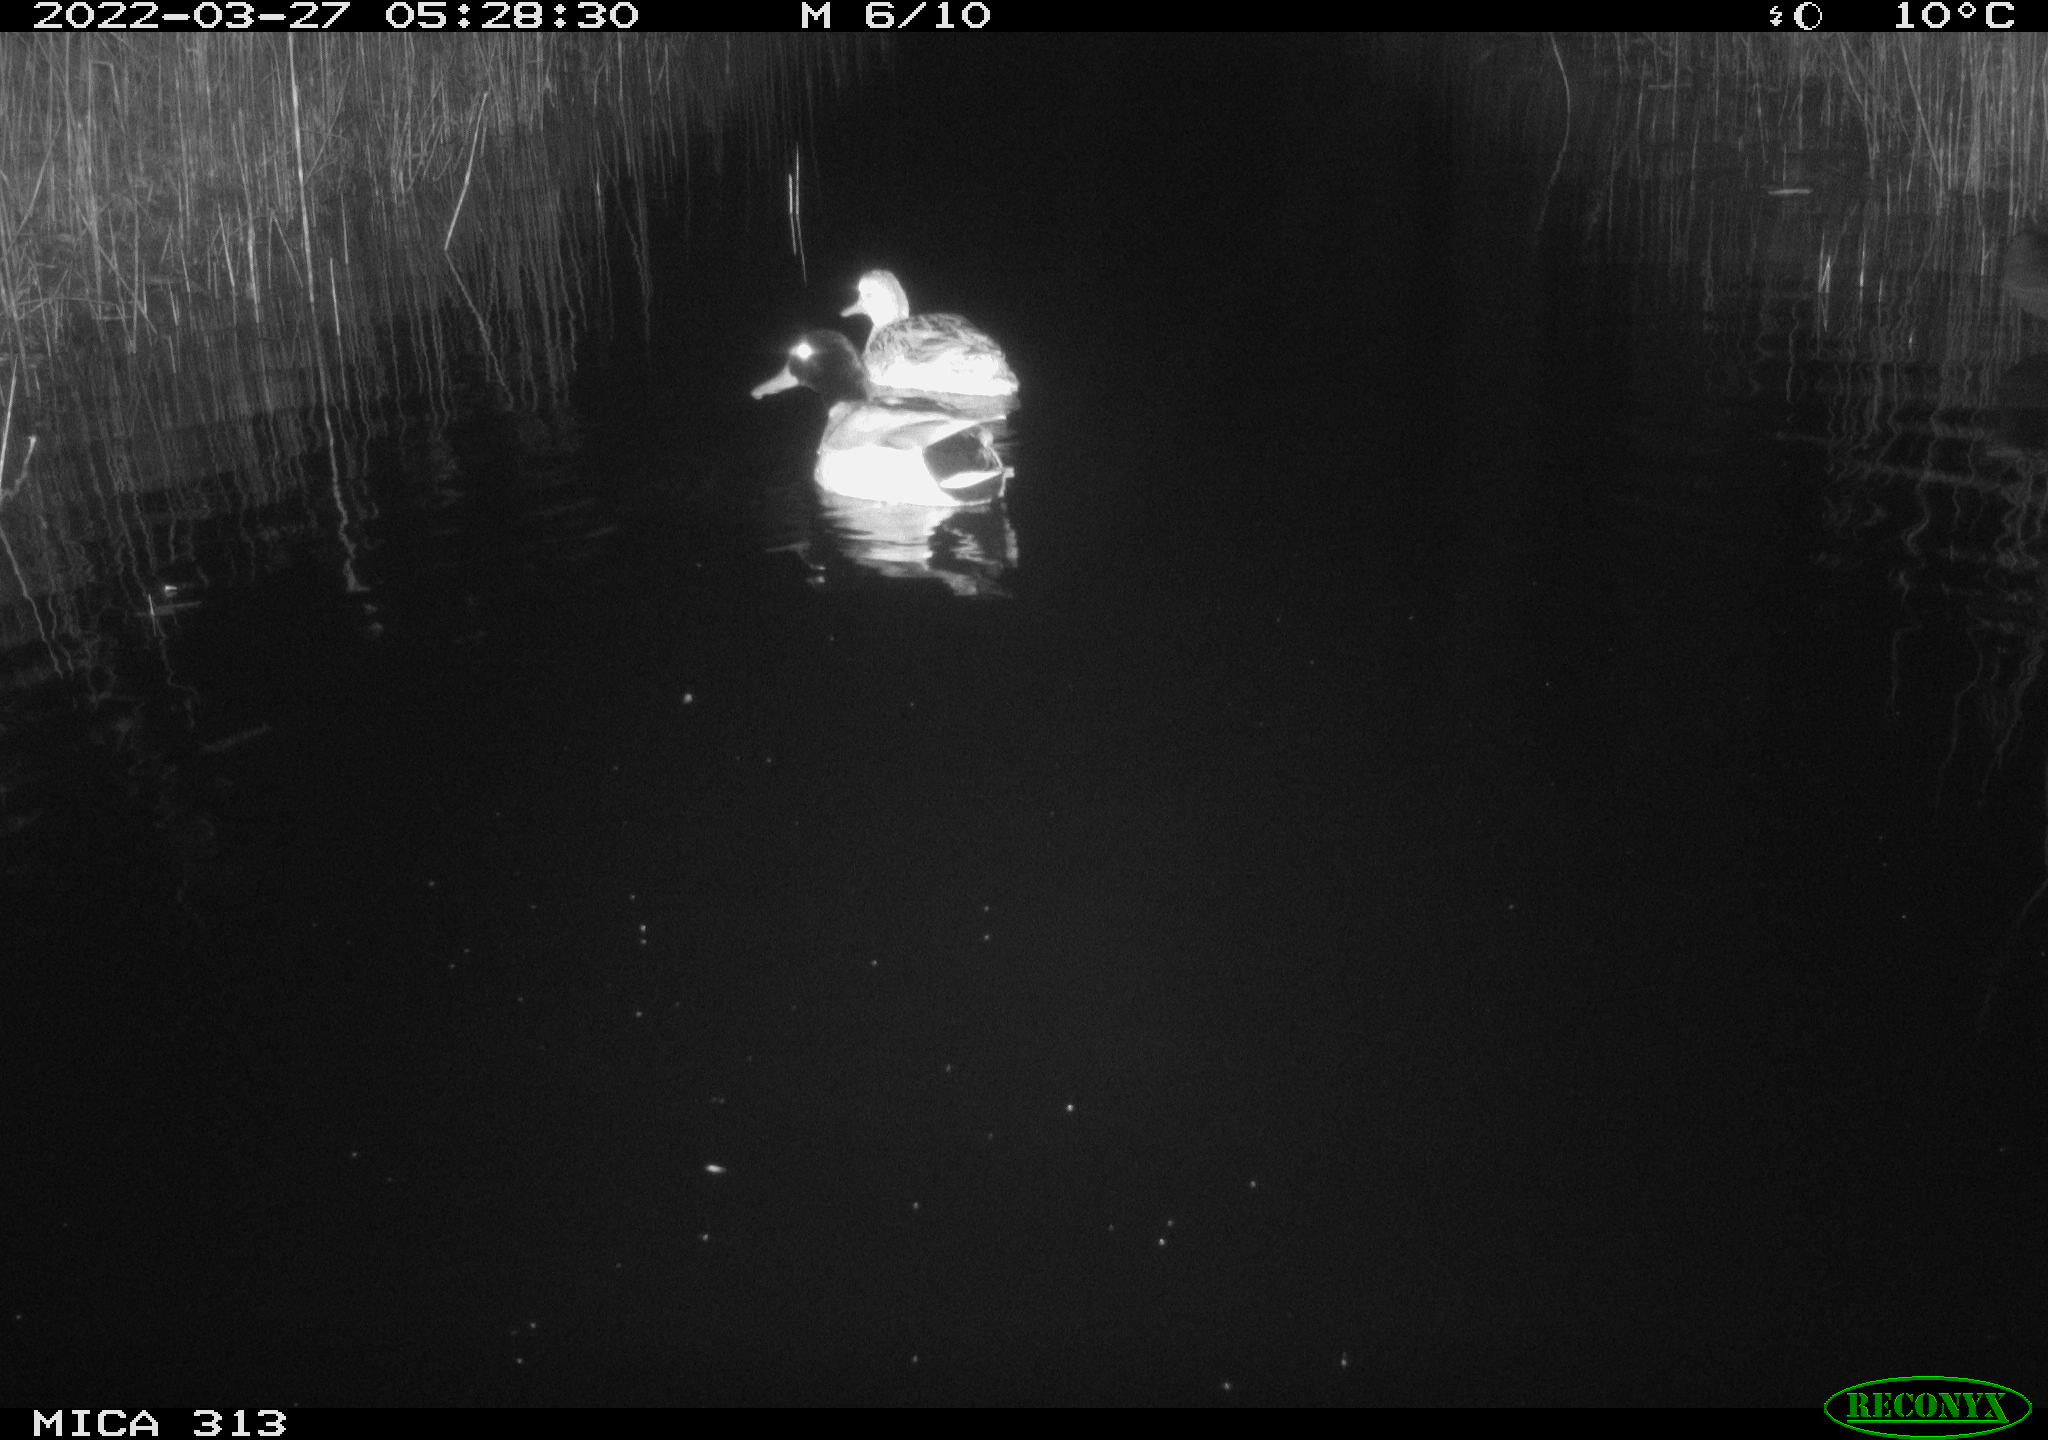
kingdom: Animalia
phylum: Chordata
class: Aves
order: Anseriformes
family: Anatidae
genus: Anas
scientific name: Anas platyrhynchos
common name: Mallard
